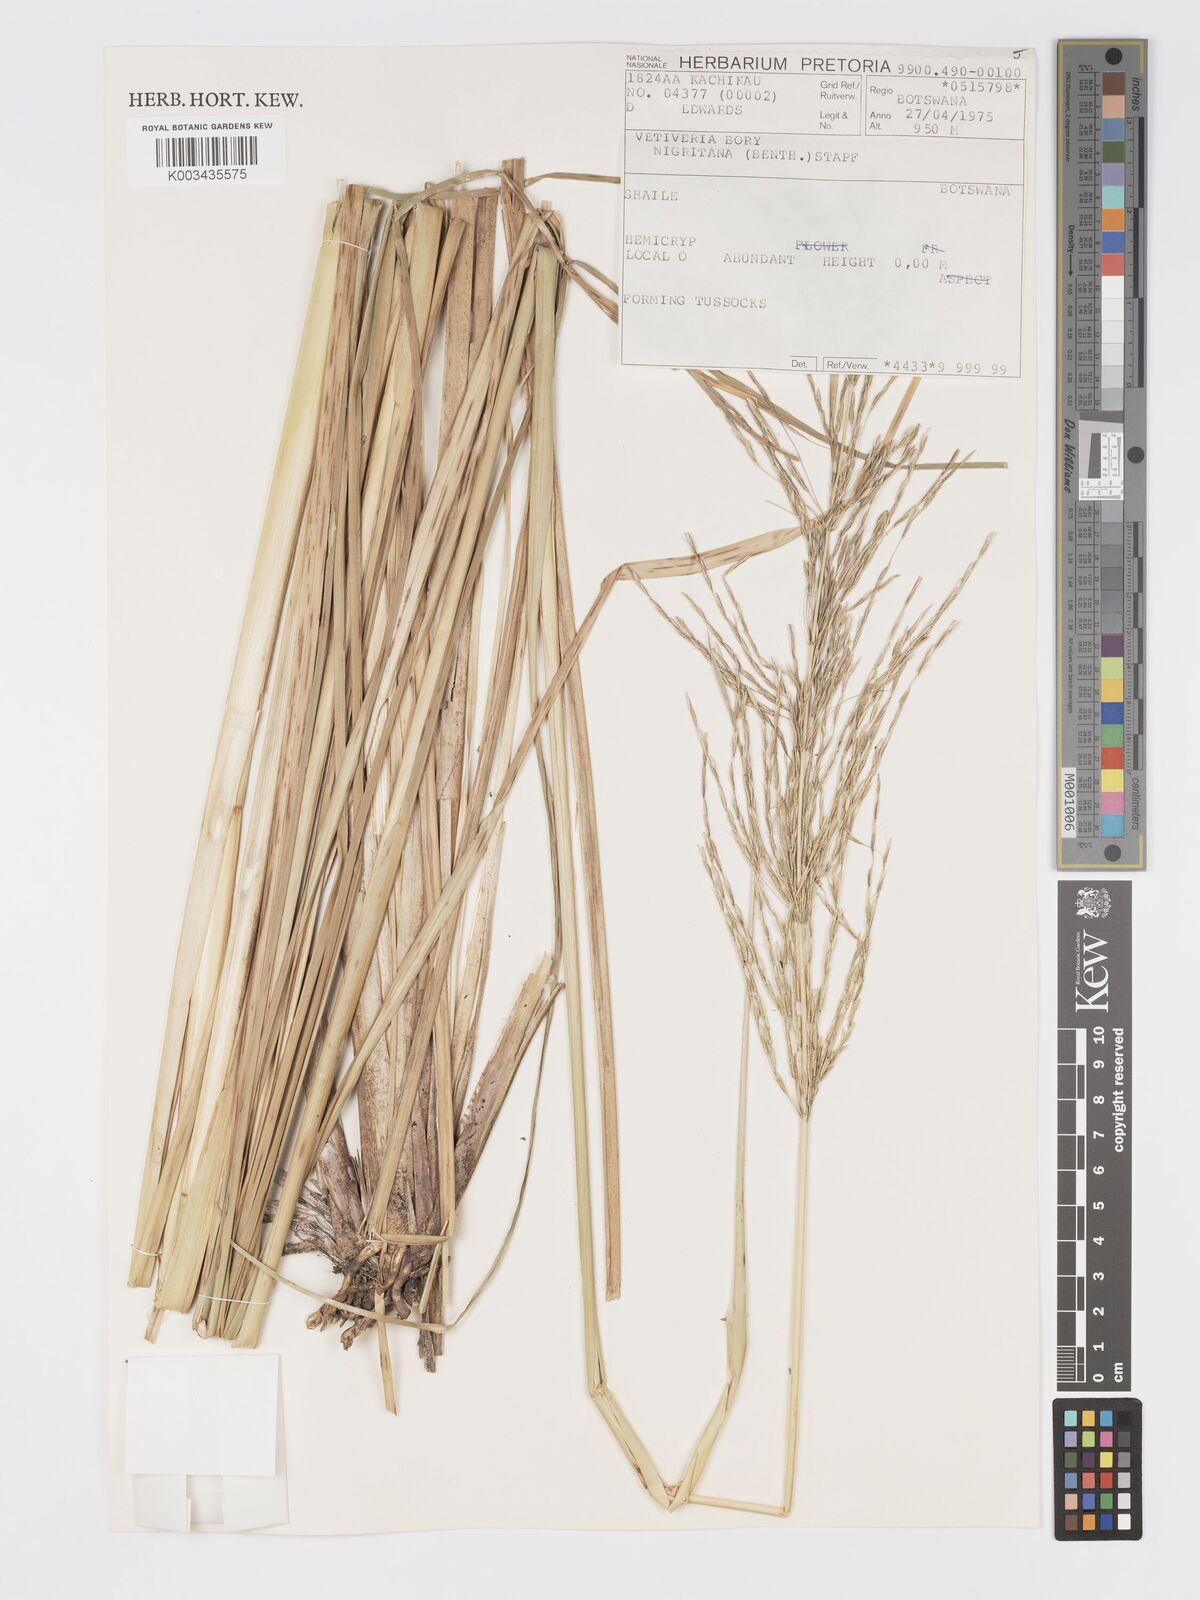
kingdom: Plantae
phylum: Tracheophyta
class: Liliopsida
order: Poales
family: Poaceae
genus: Chrysopogon
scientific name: Chrysopogon nigritanus
